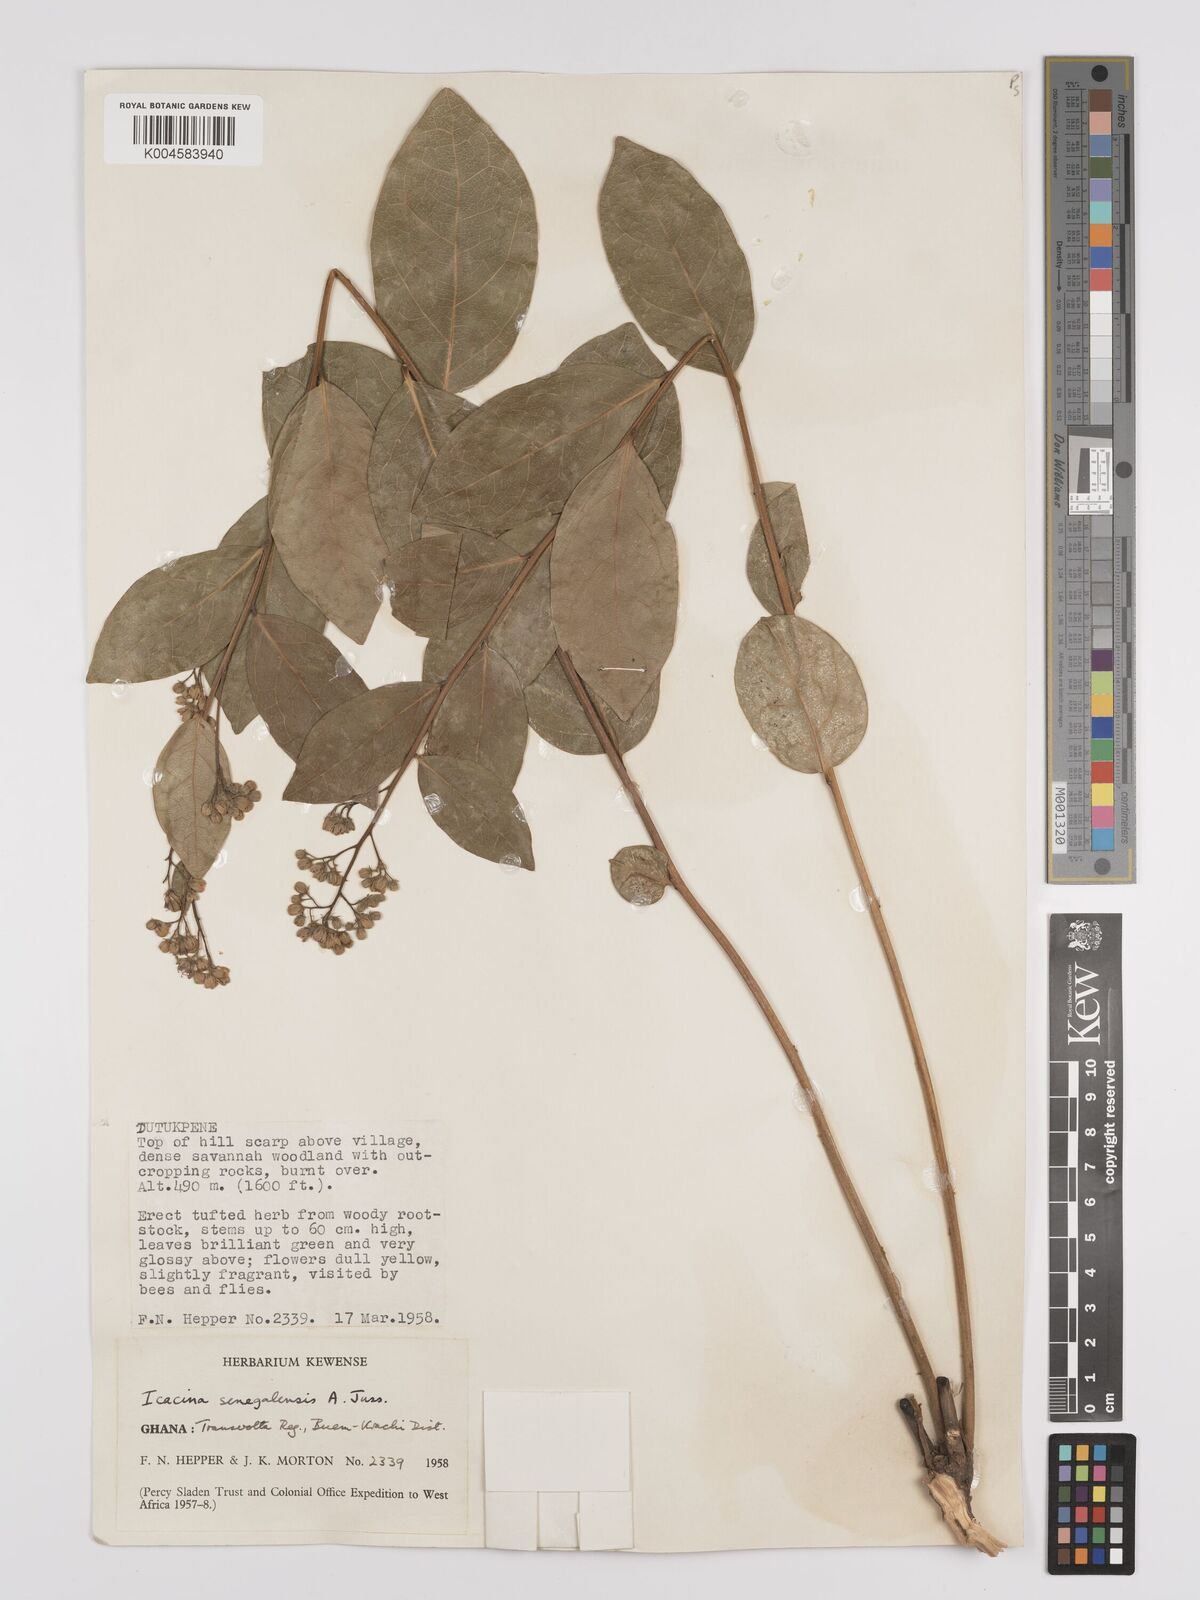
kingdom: Plantae
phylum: Tracheophyta
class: Magnoliopsida
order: Icacinales
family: Icacinaceae
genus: Icacina
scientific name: Icacina oliviformis
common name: False yam
